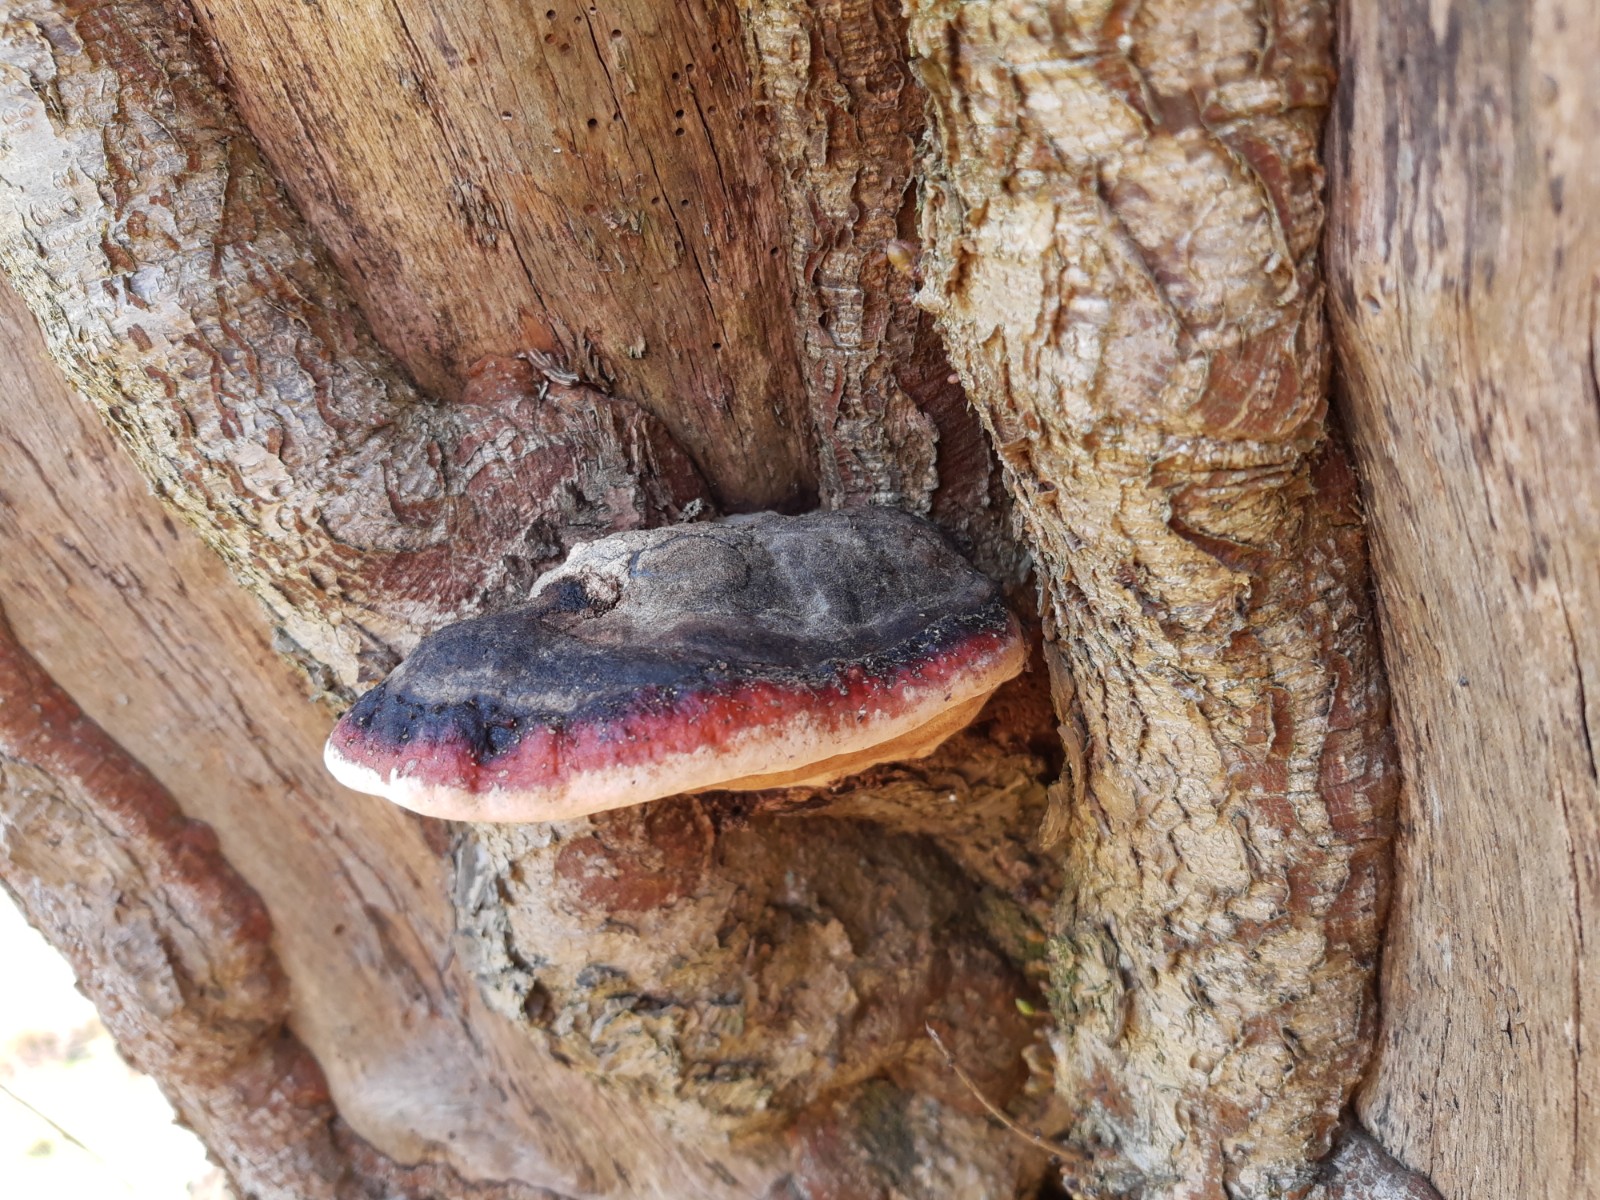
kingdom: Fungi
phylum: Basidiomycota
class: Agaricomycetes
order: Polyporales
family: Fomitopsidaceae
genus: Fomitopsis
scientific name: Fomitopsis pinicola
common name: randbæltet hovporesvamp
